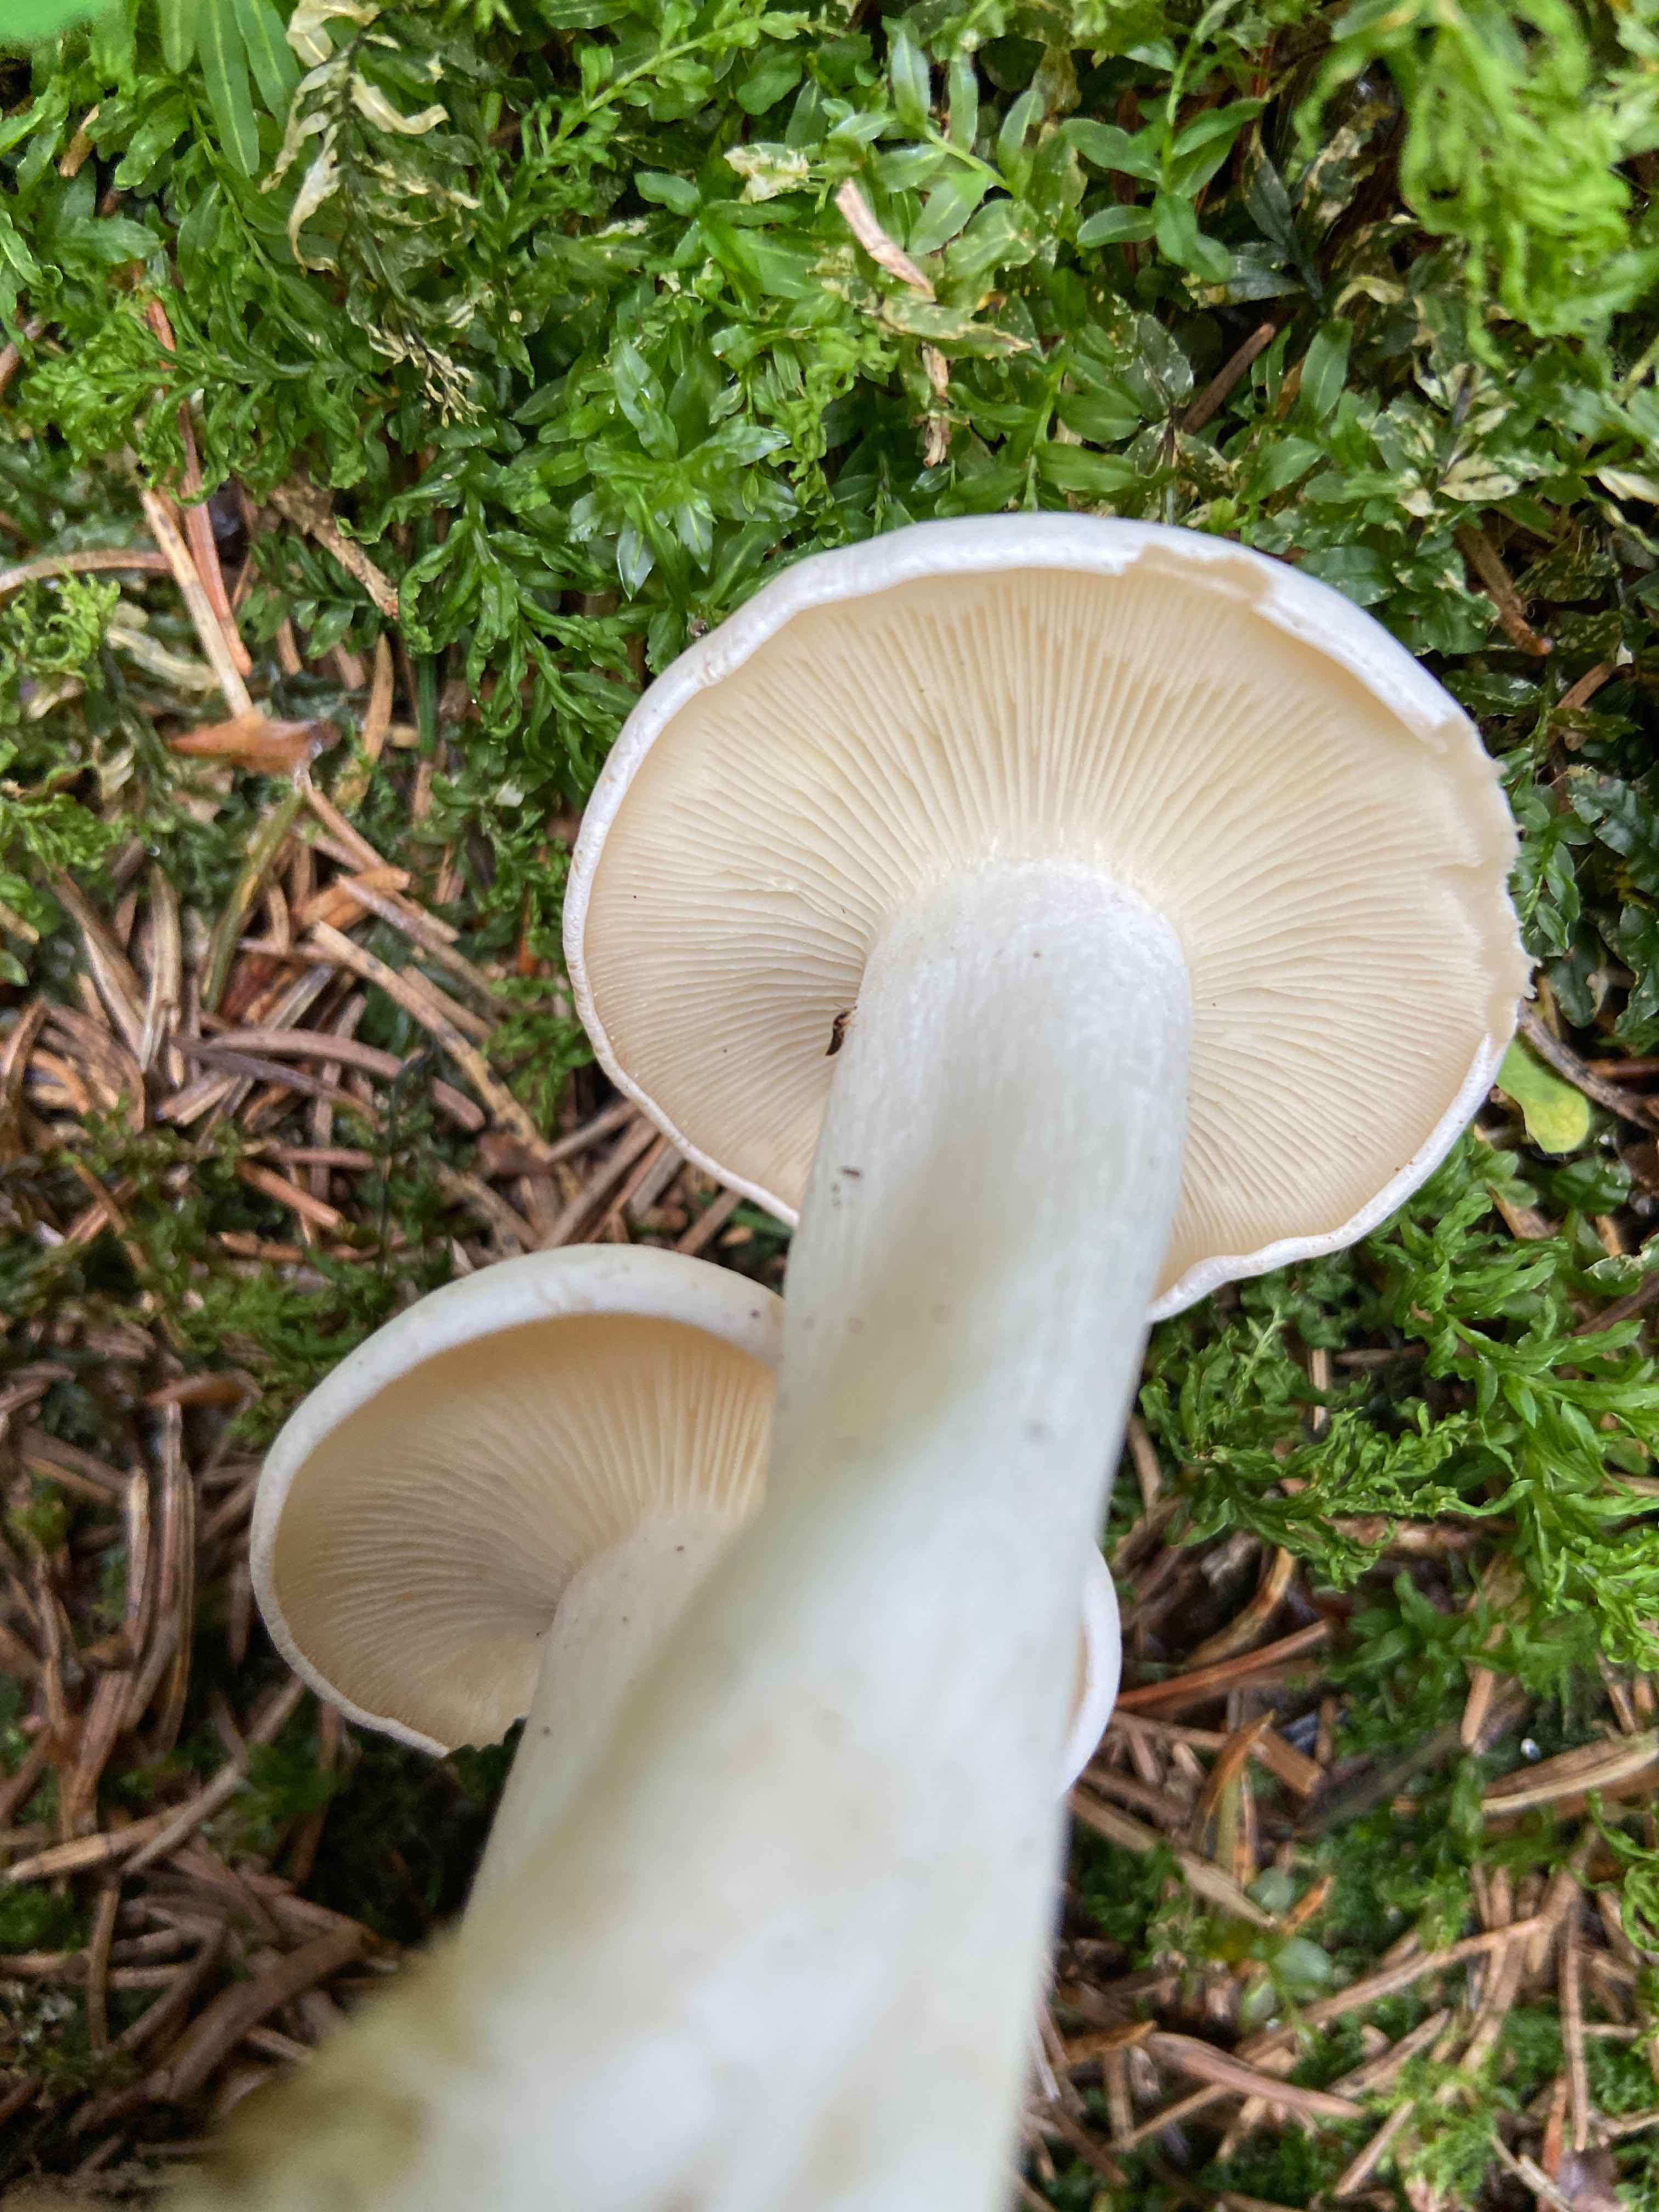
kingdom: Fungi
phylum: Basidiomycota
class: Agaricomycetes
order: Agaricales
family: Tricholomataceae
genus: Leucocybe
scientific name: Leucocybe connata
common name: knippe-tragthat
